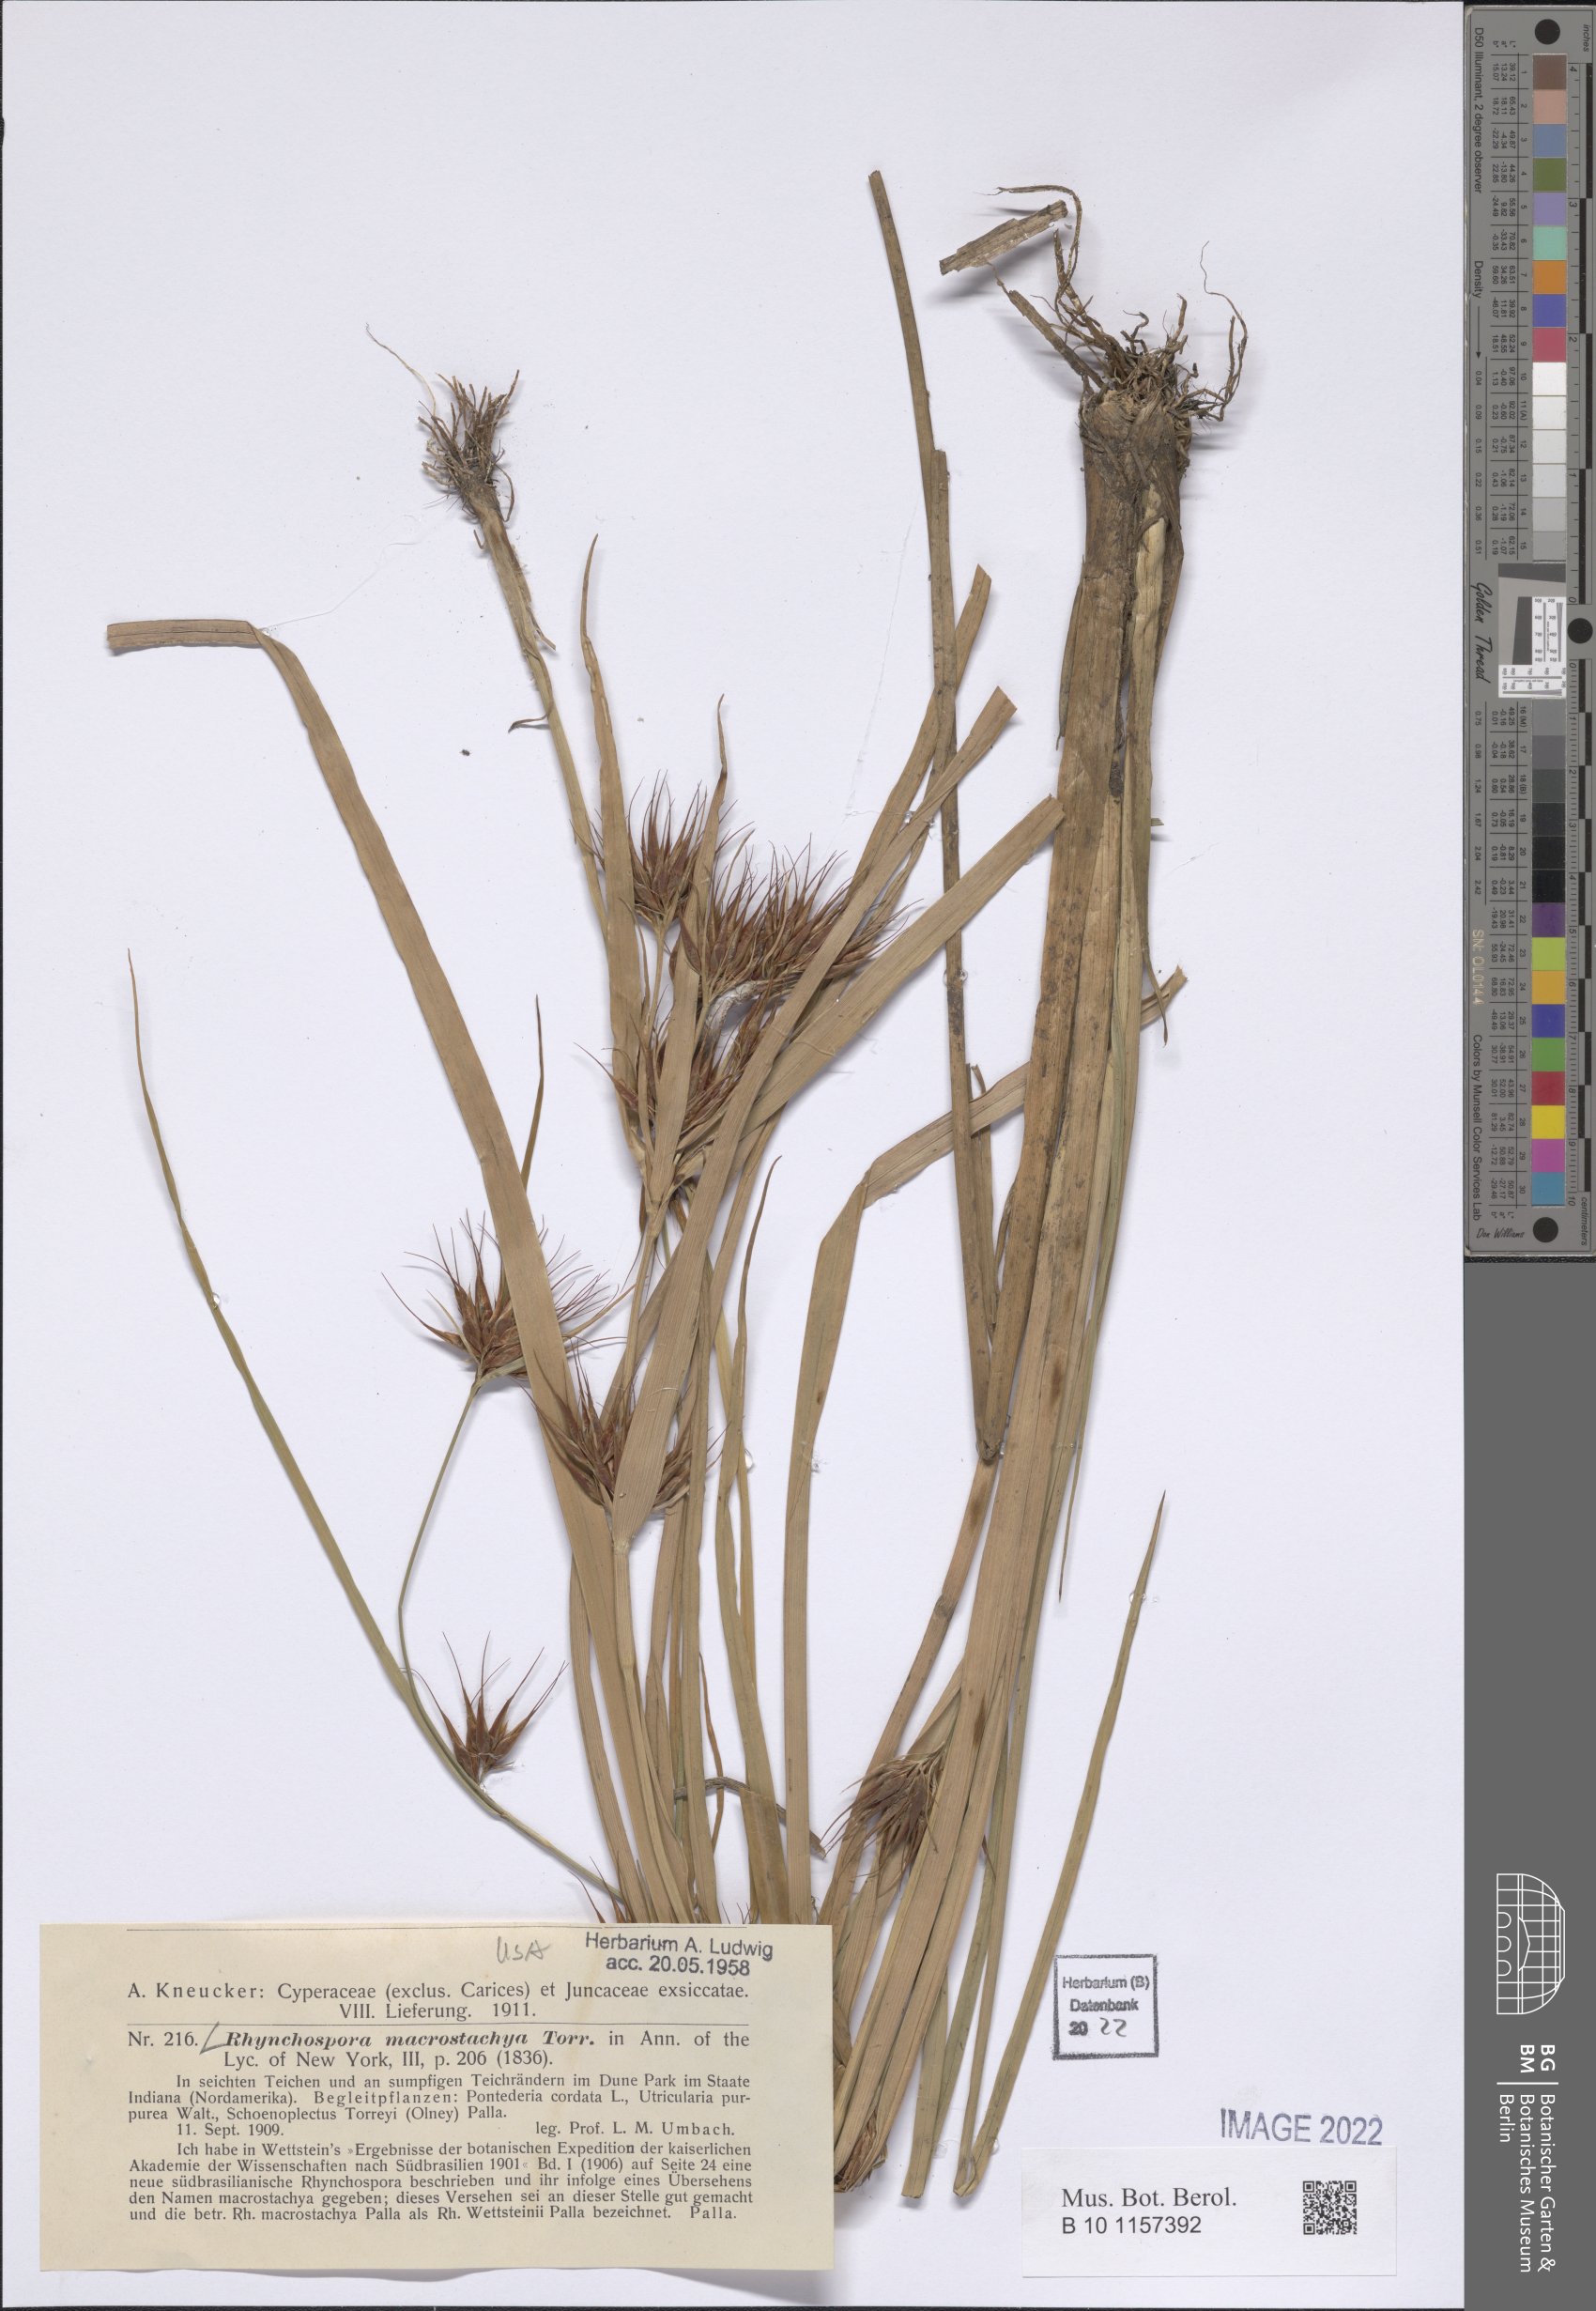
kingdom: Plantae
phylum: Tracheophyta
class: Liliopsida
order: Poales
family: Cyperaceae
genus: Rhynchospora
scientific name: Rhynchospora macrostachya
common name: Tall beakrush
